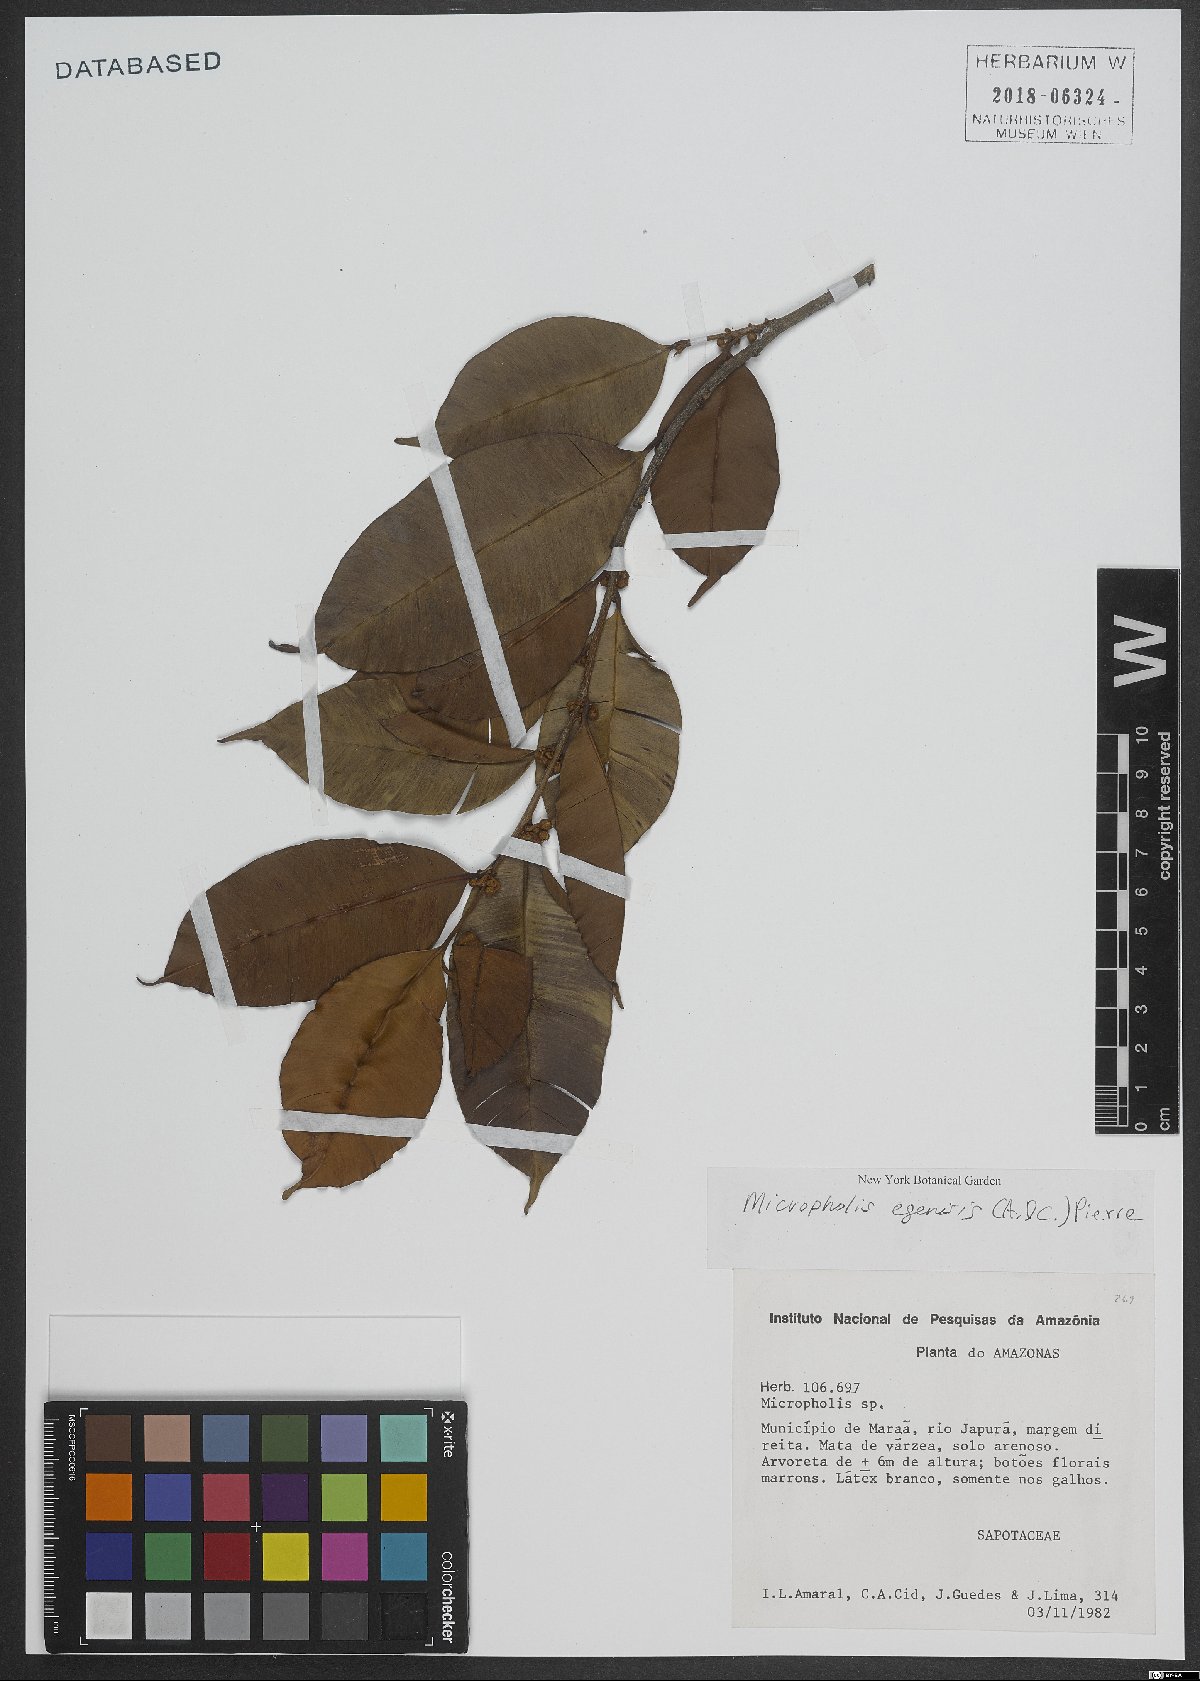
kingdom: Plantae
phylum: Tracheophyta
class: Magnoliopsida
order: Ericales
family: Sapotaceae
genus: Micropholis
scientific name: Micropholis egensis
